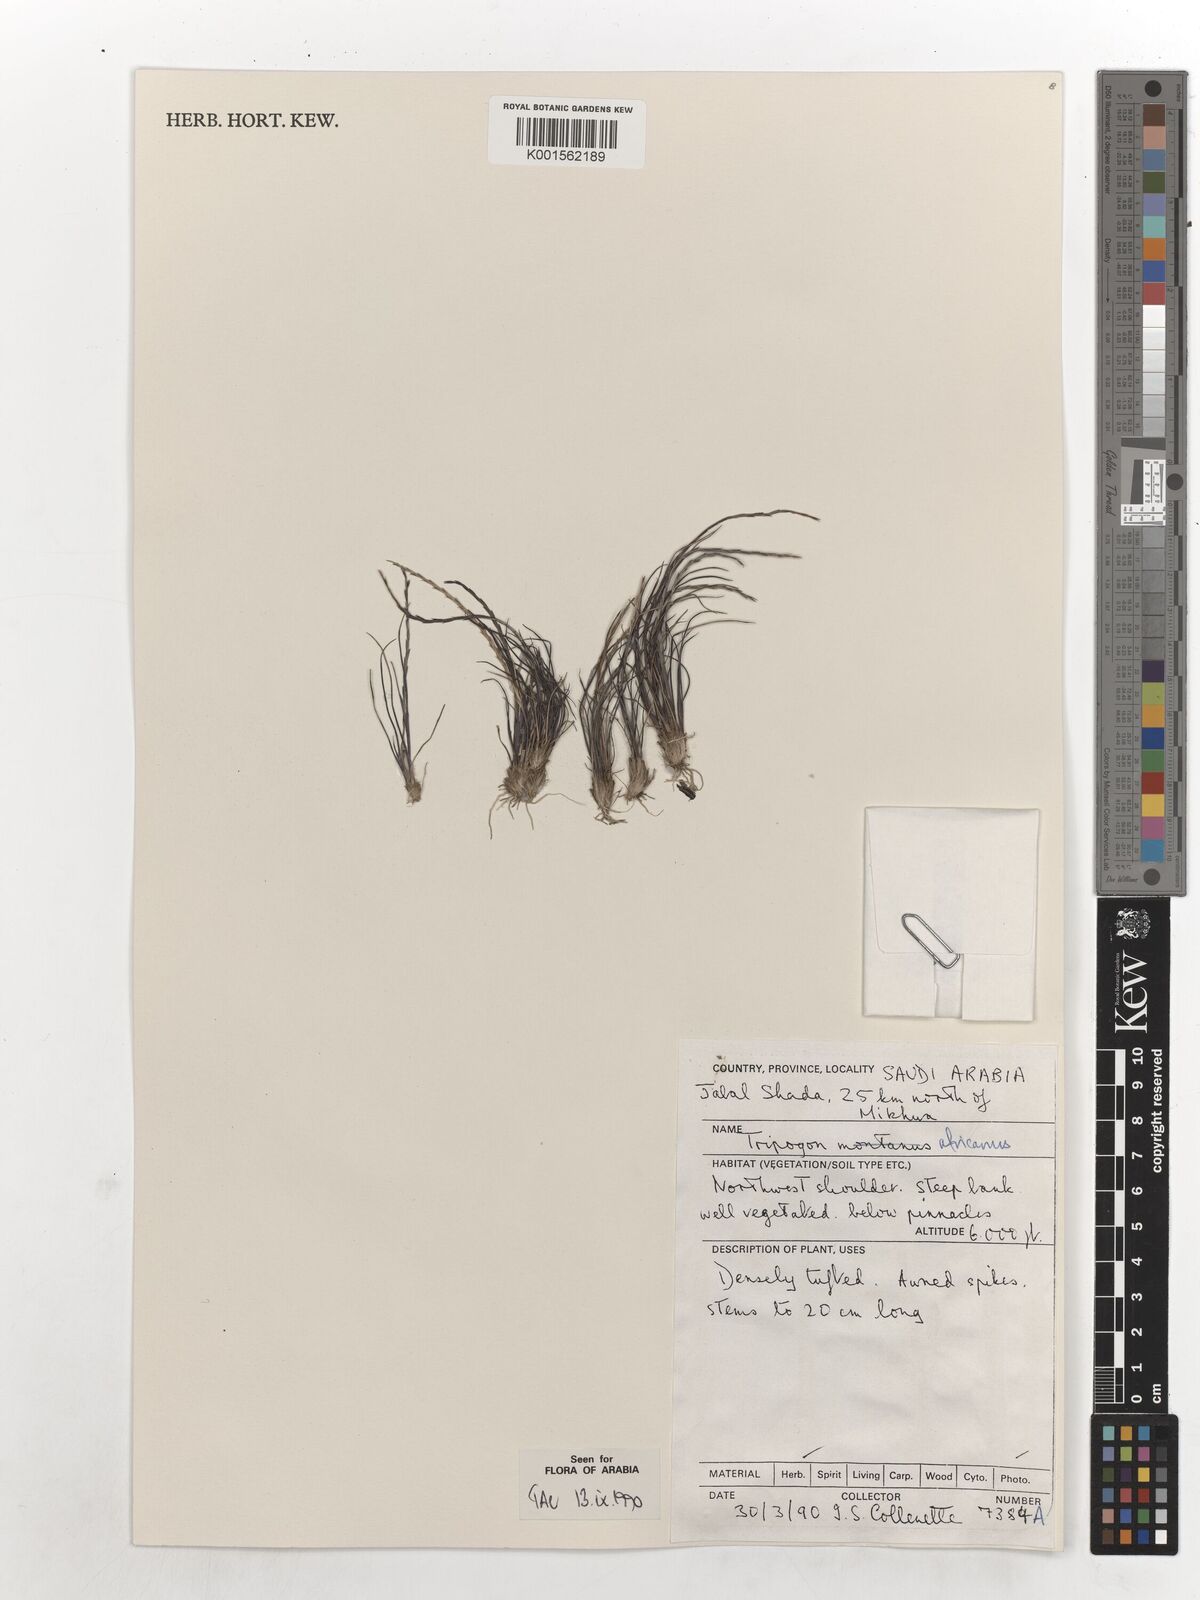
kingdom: Plantae
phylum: Tracheophyta
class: Liliopsida
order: Poales
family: Poaceae
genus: Tripogon
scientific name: Tripogon africanus
